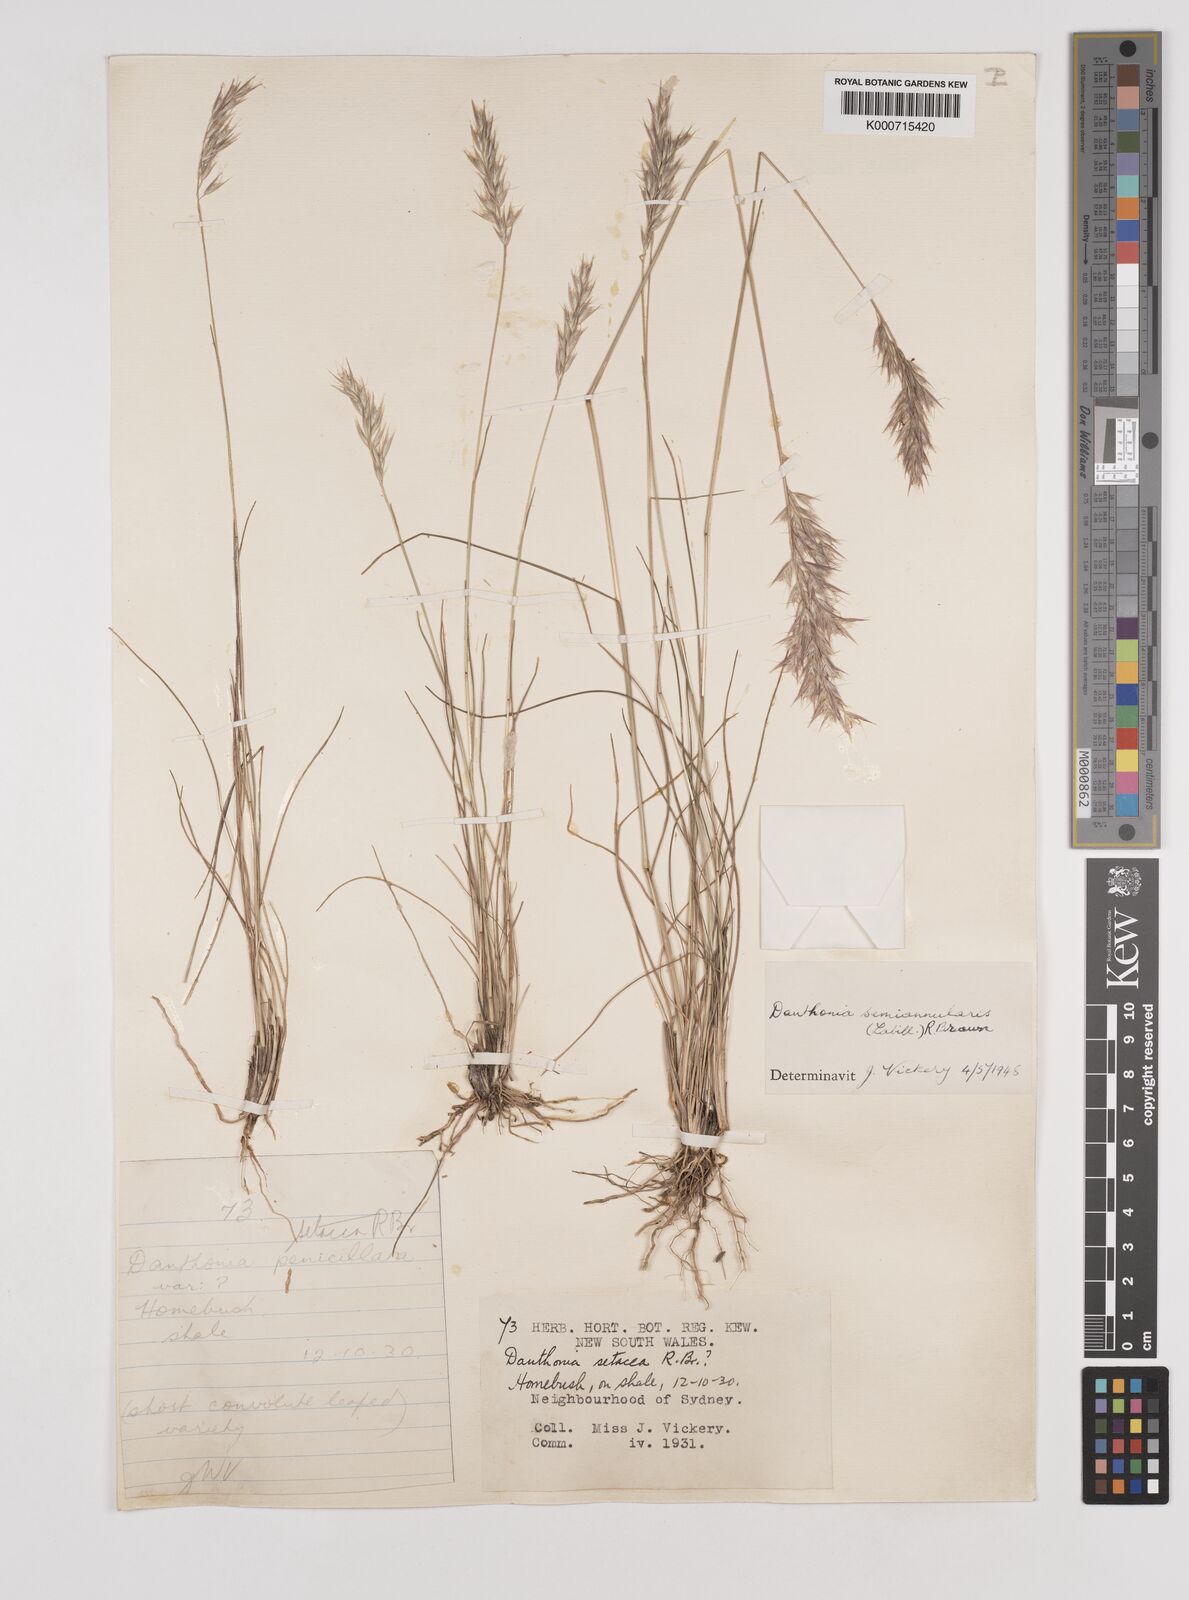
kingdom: Plantae
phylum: Tracheophyta
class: Liliopsida
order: Poales
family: Poaceae
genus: Rytidosperma
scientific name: Rytidosperma semiannulare
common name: Tasmanian wallaby grass
